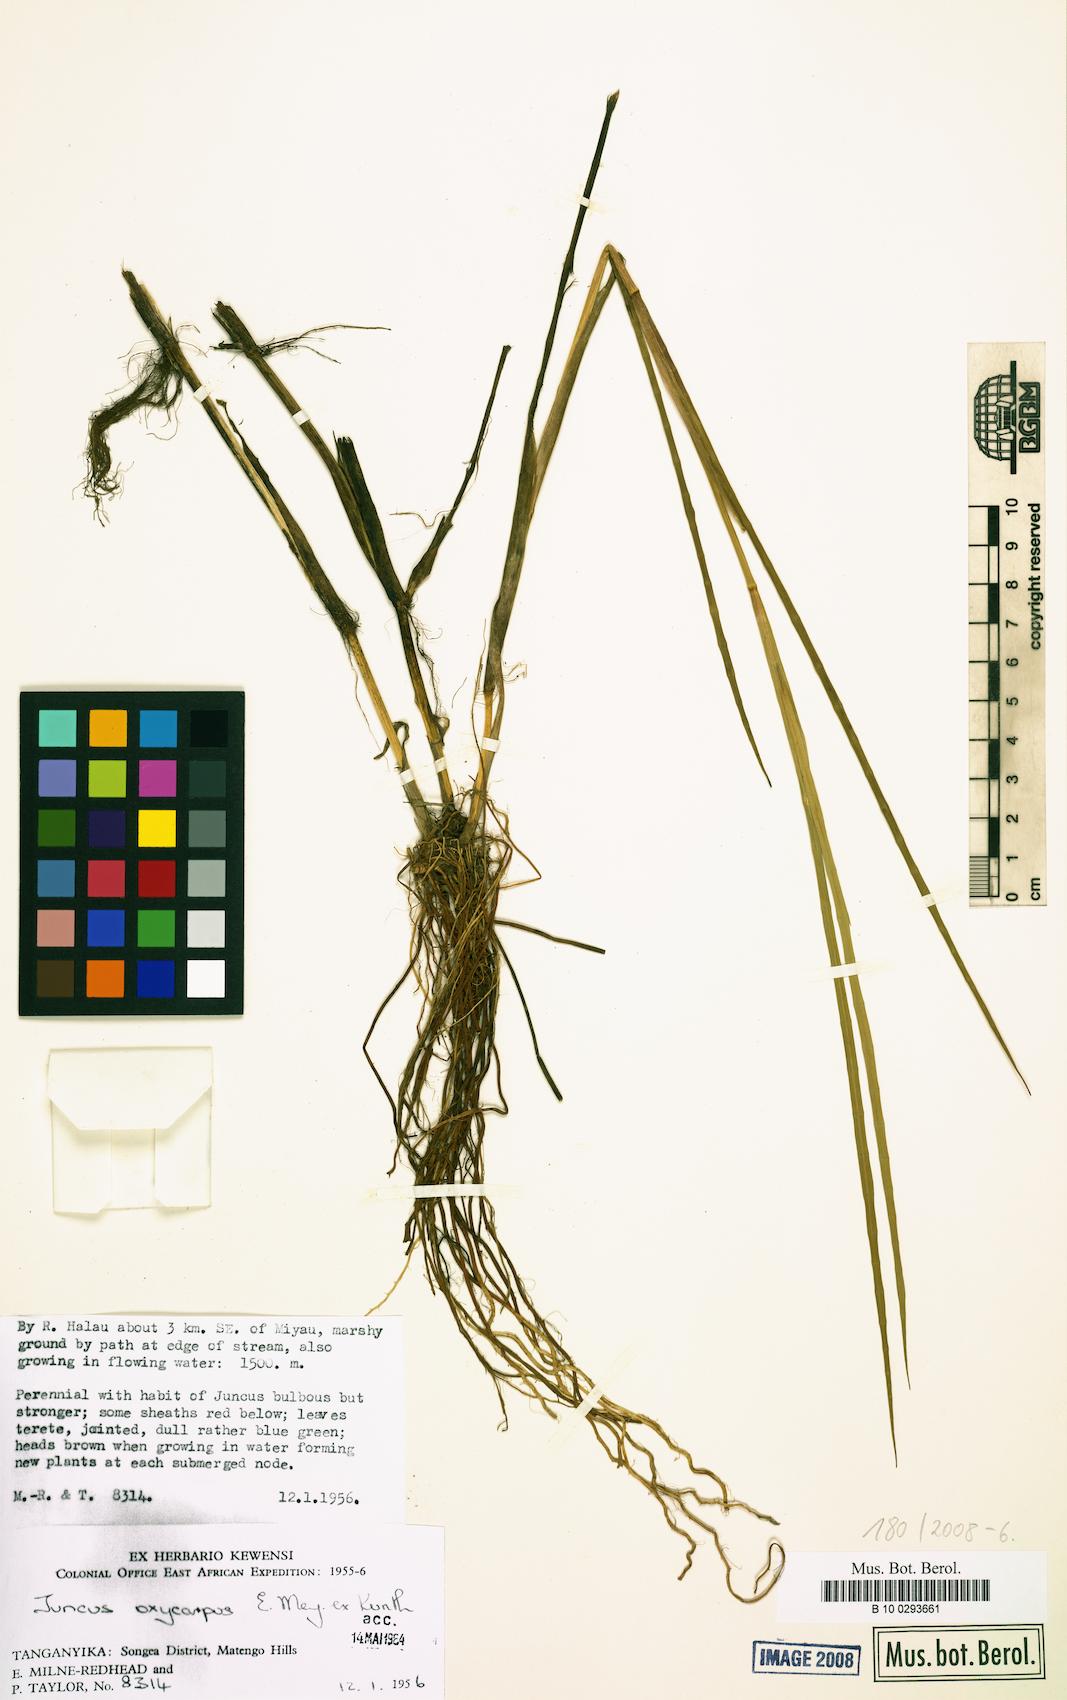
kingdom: Plantae
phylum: Tracheophyta
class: Liliopsida
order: Poales
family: Juncaceae
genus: Juncus
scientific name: Juncus oxycarpus
